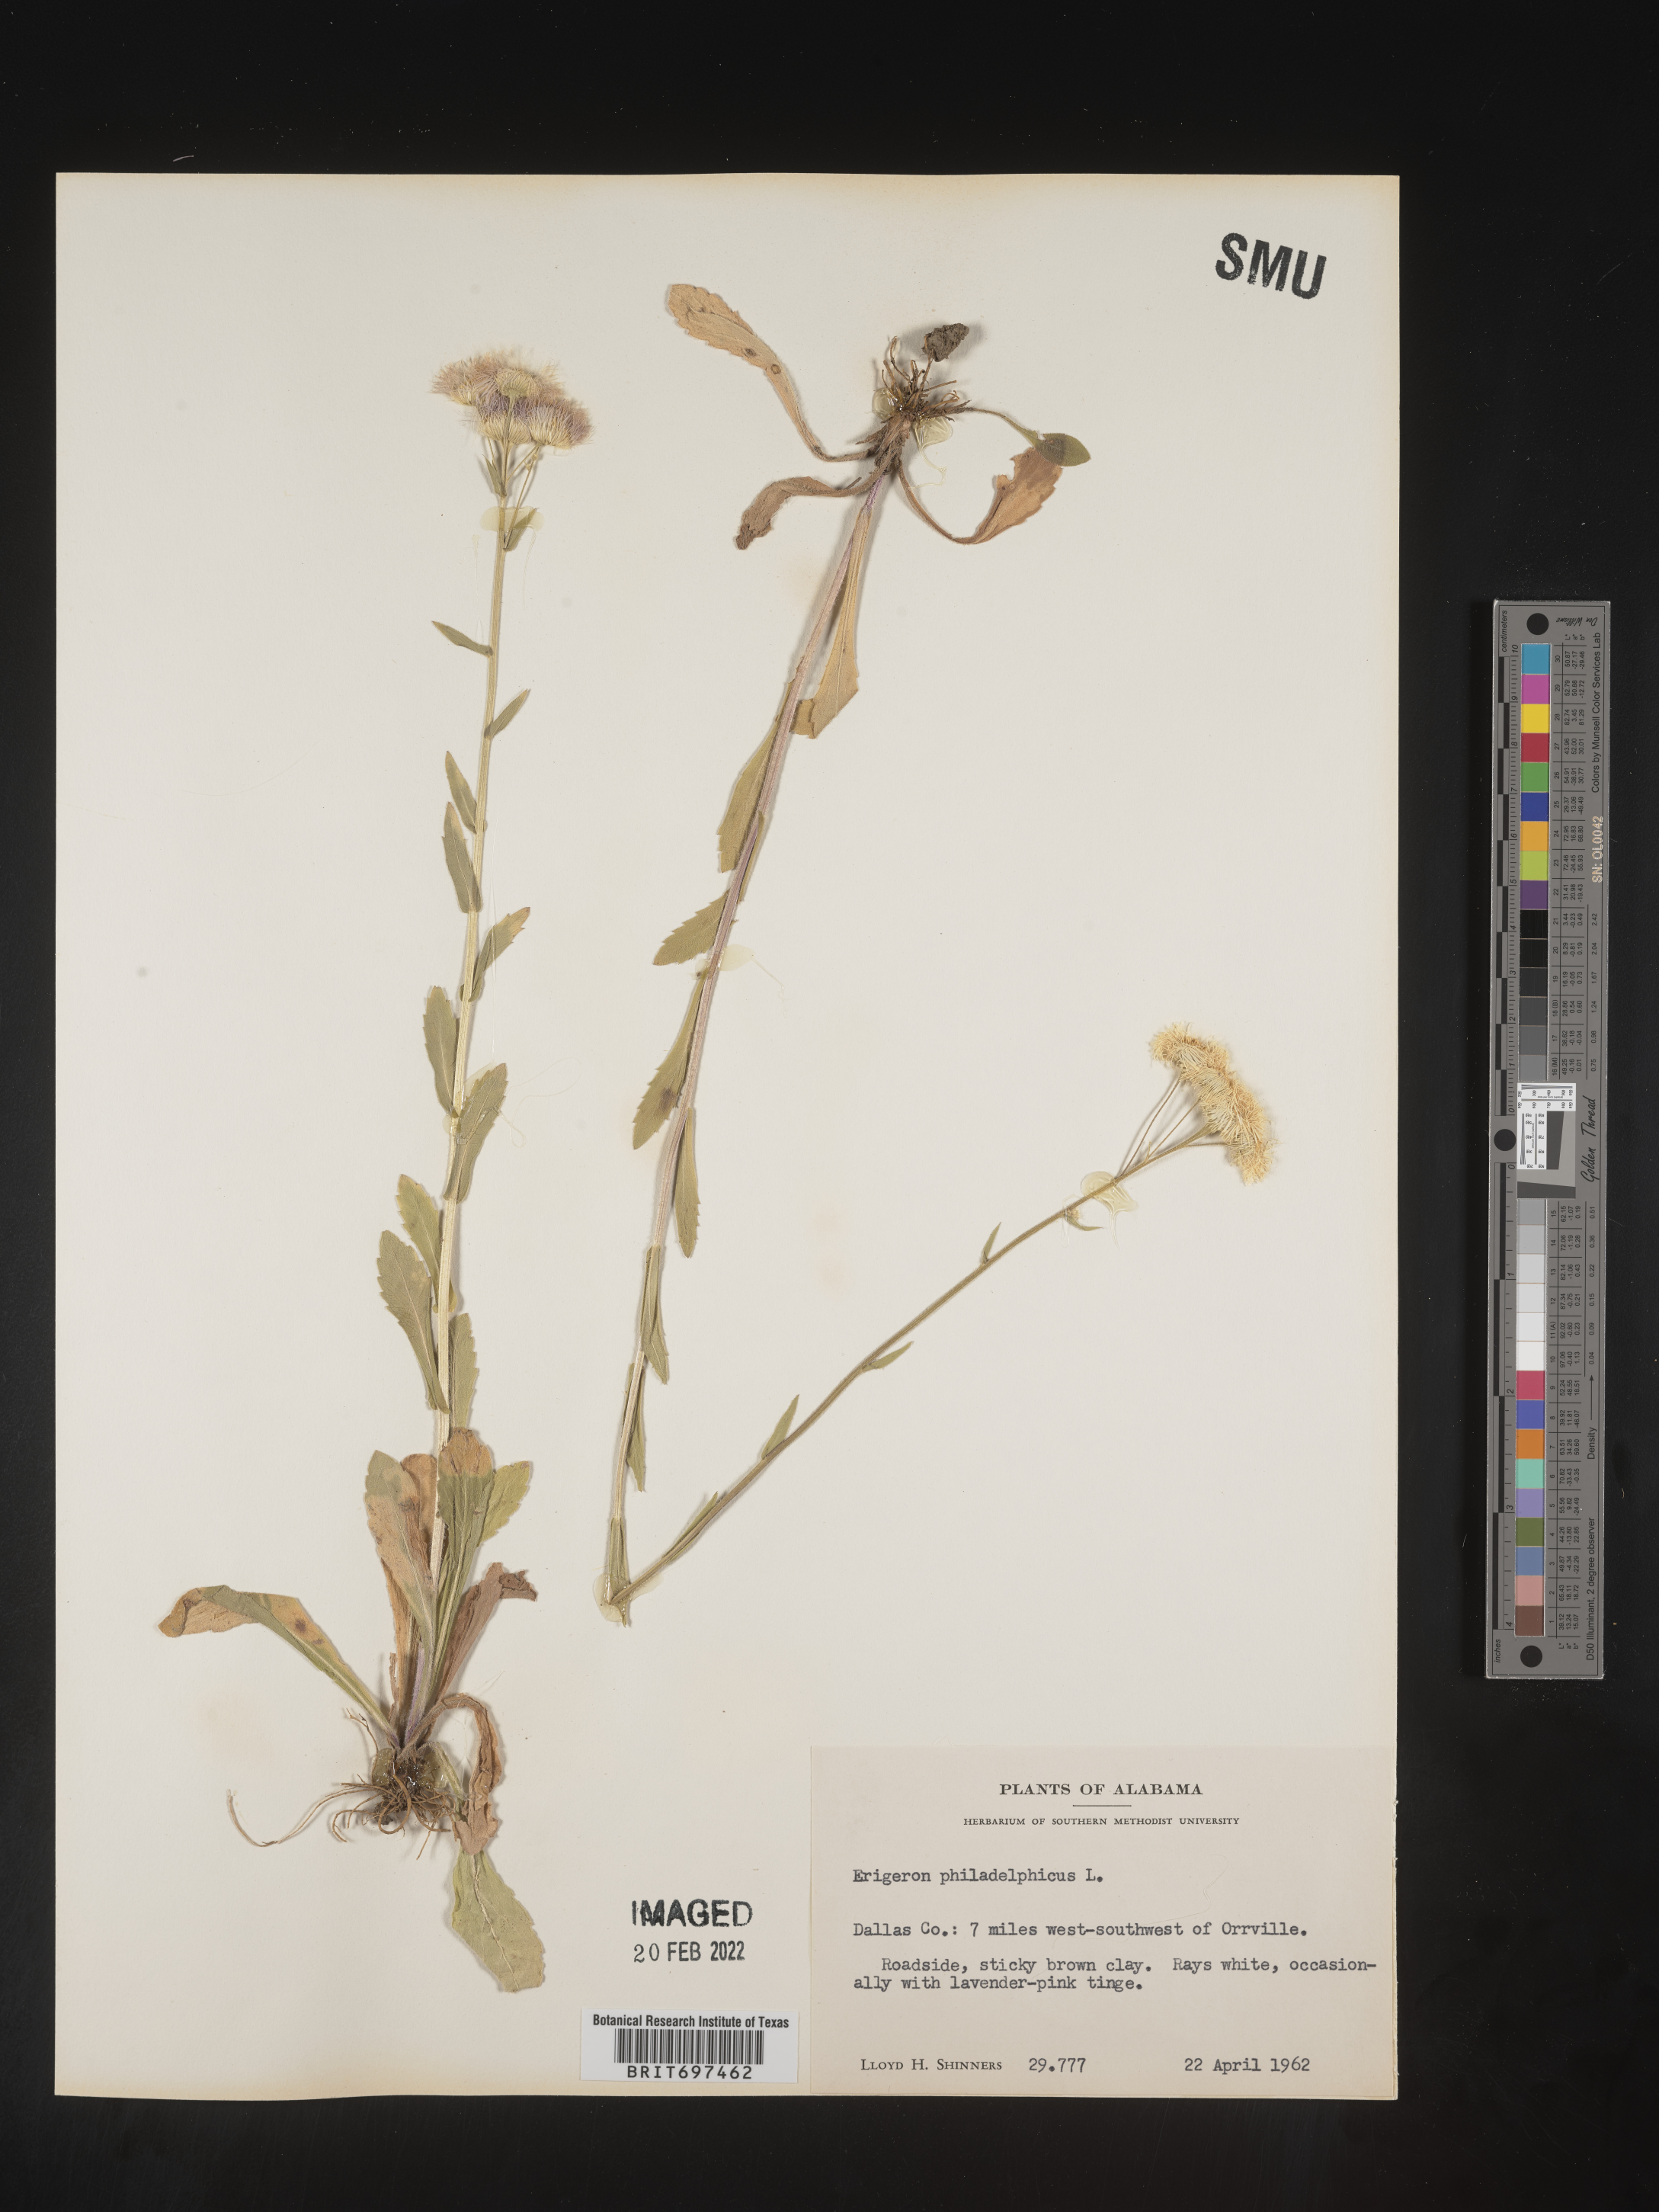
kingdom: Plantae
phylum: Tracheophyta
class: Magnoliopsida
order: Asterales
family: Asteraceae
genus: Erigeron
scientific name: Erigeron philadelphicus
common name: Robin's-plantain
